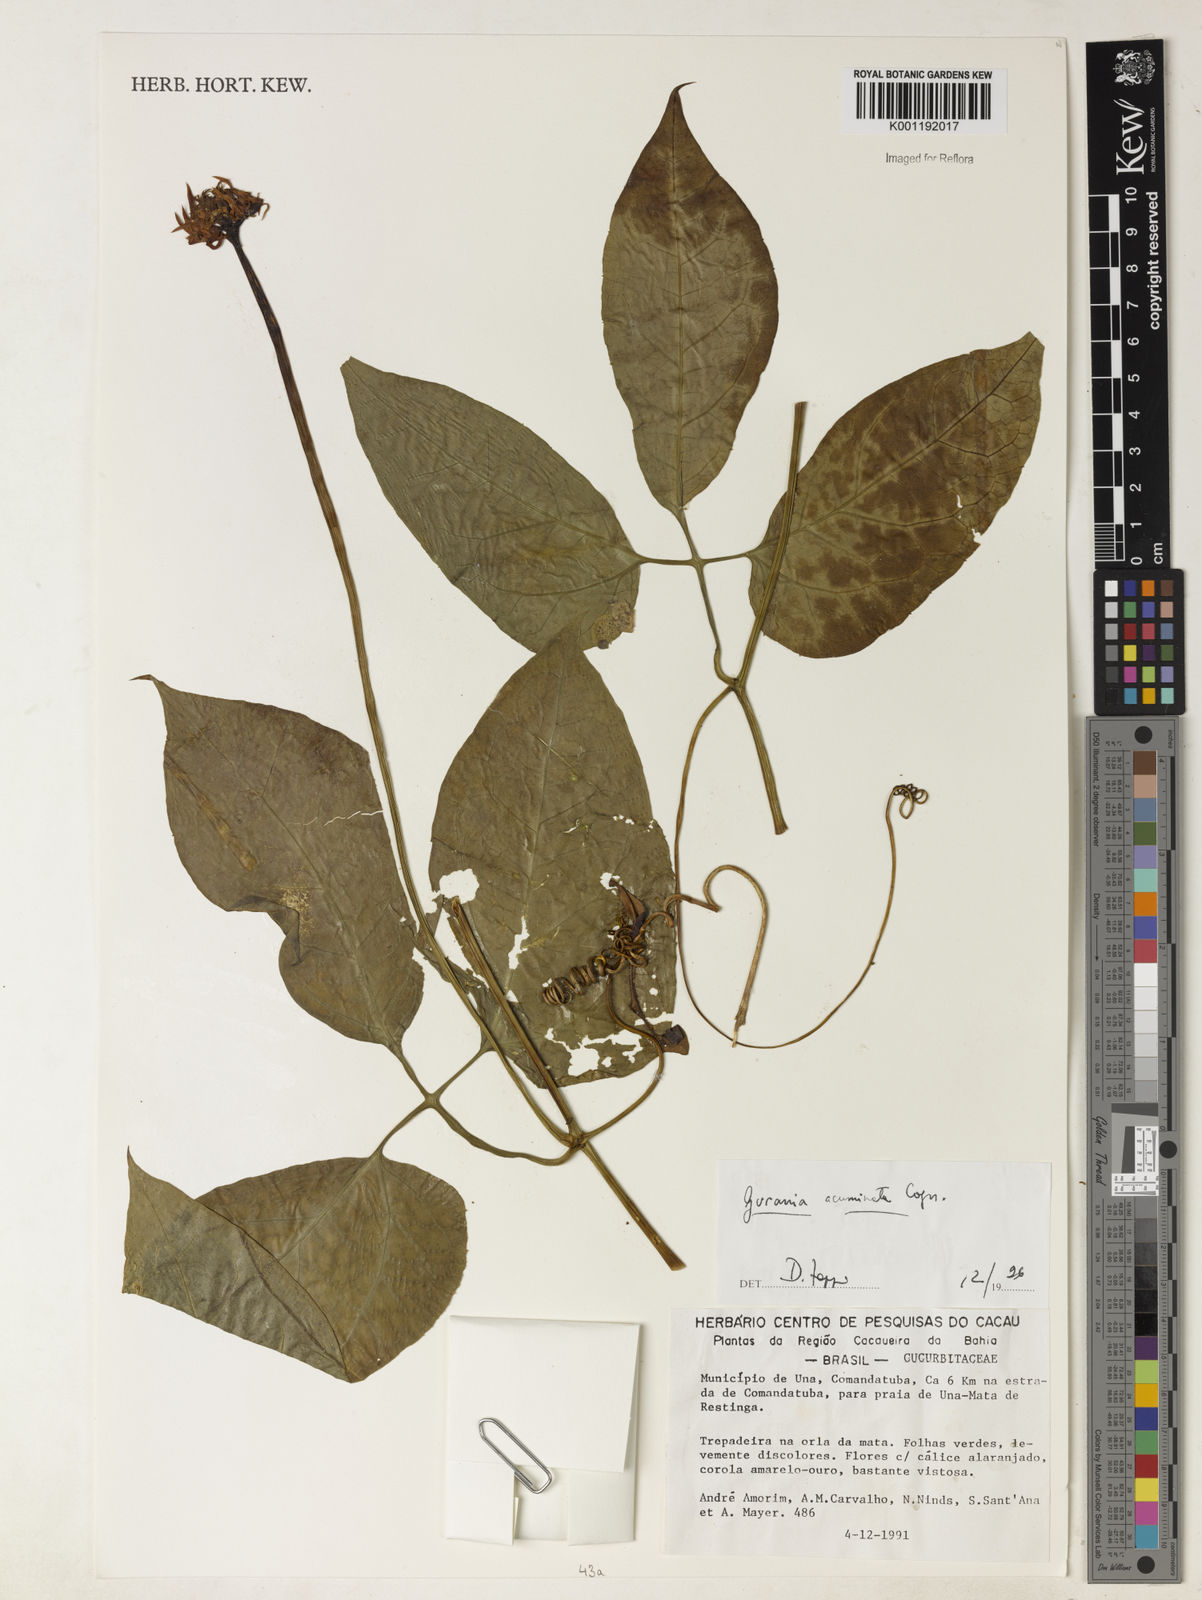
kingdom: Plantae
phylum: Tracheophyta
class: Magnoliopsida
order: Cucurbitales
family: Cucurbitaceae
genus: Gurania
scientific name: Gurania acuminata
